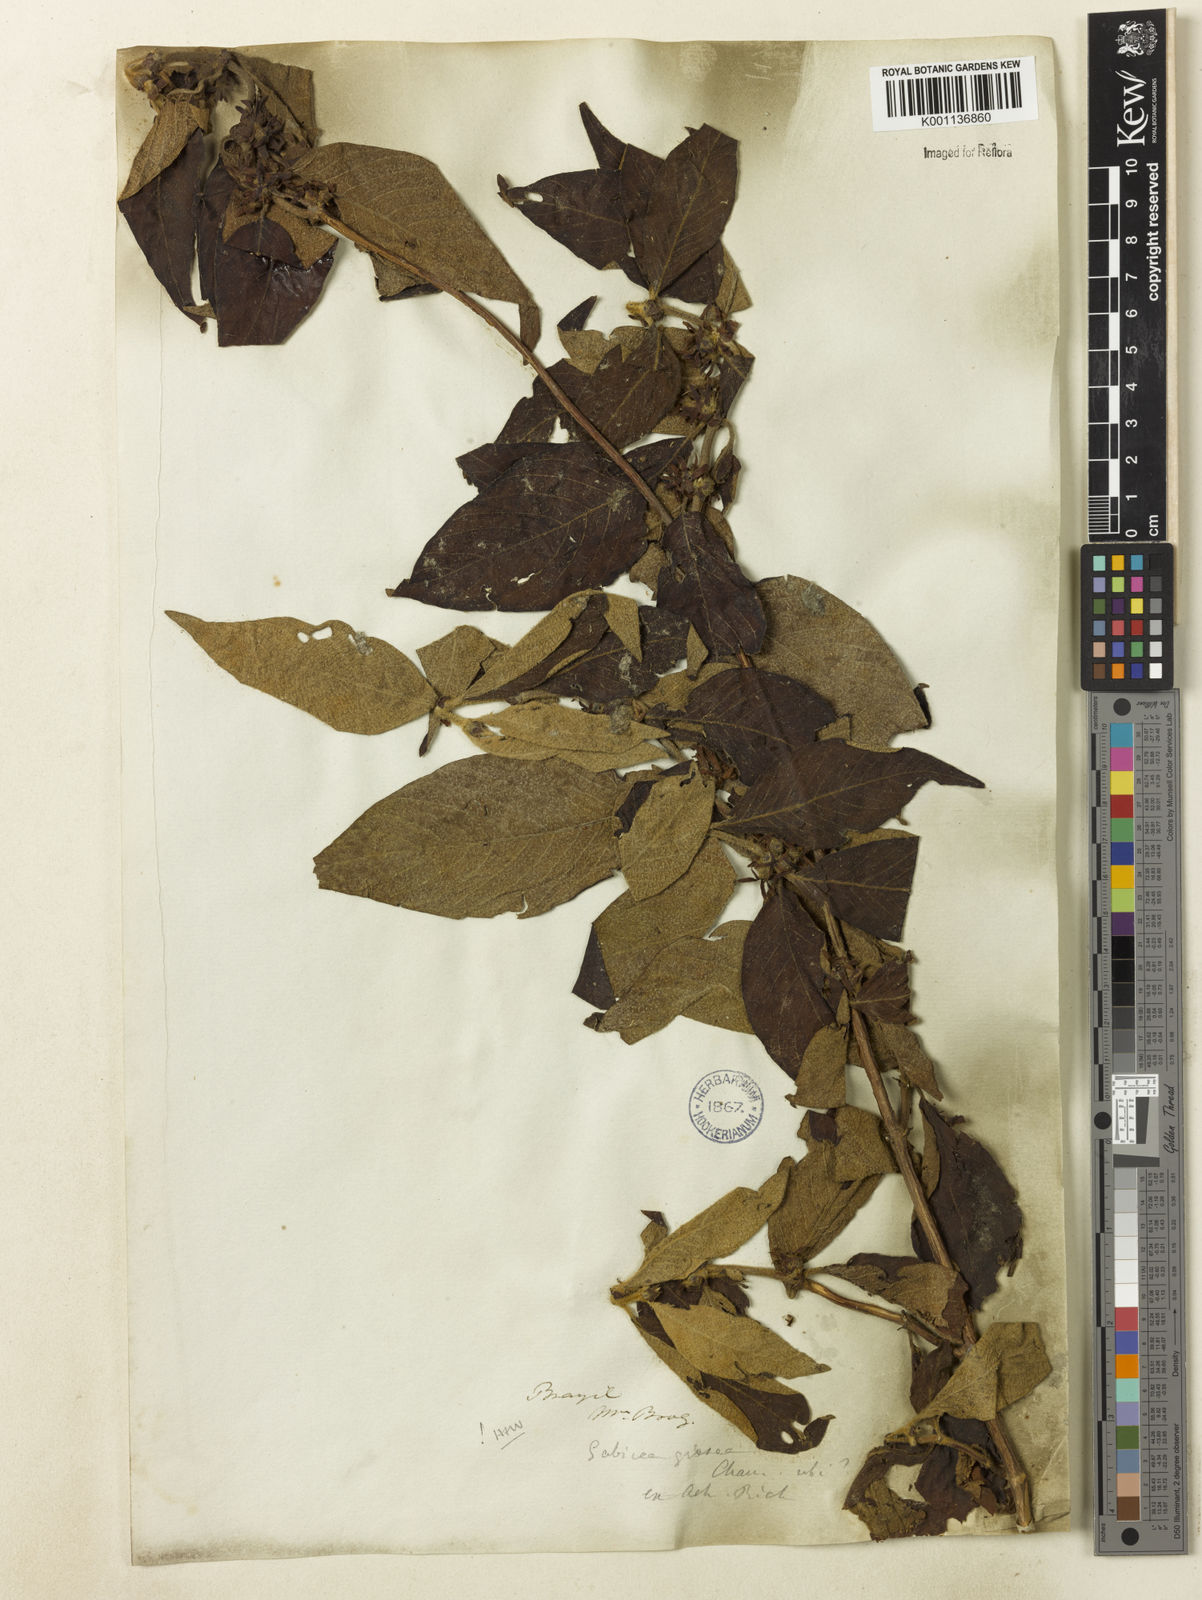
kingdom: Plantae
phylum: Tracheophyta
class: Magnoliopsida
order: Gentianales
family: Rubiaceae
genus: Sabicea
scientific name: Sabicea grisea
